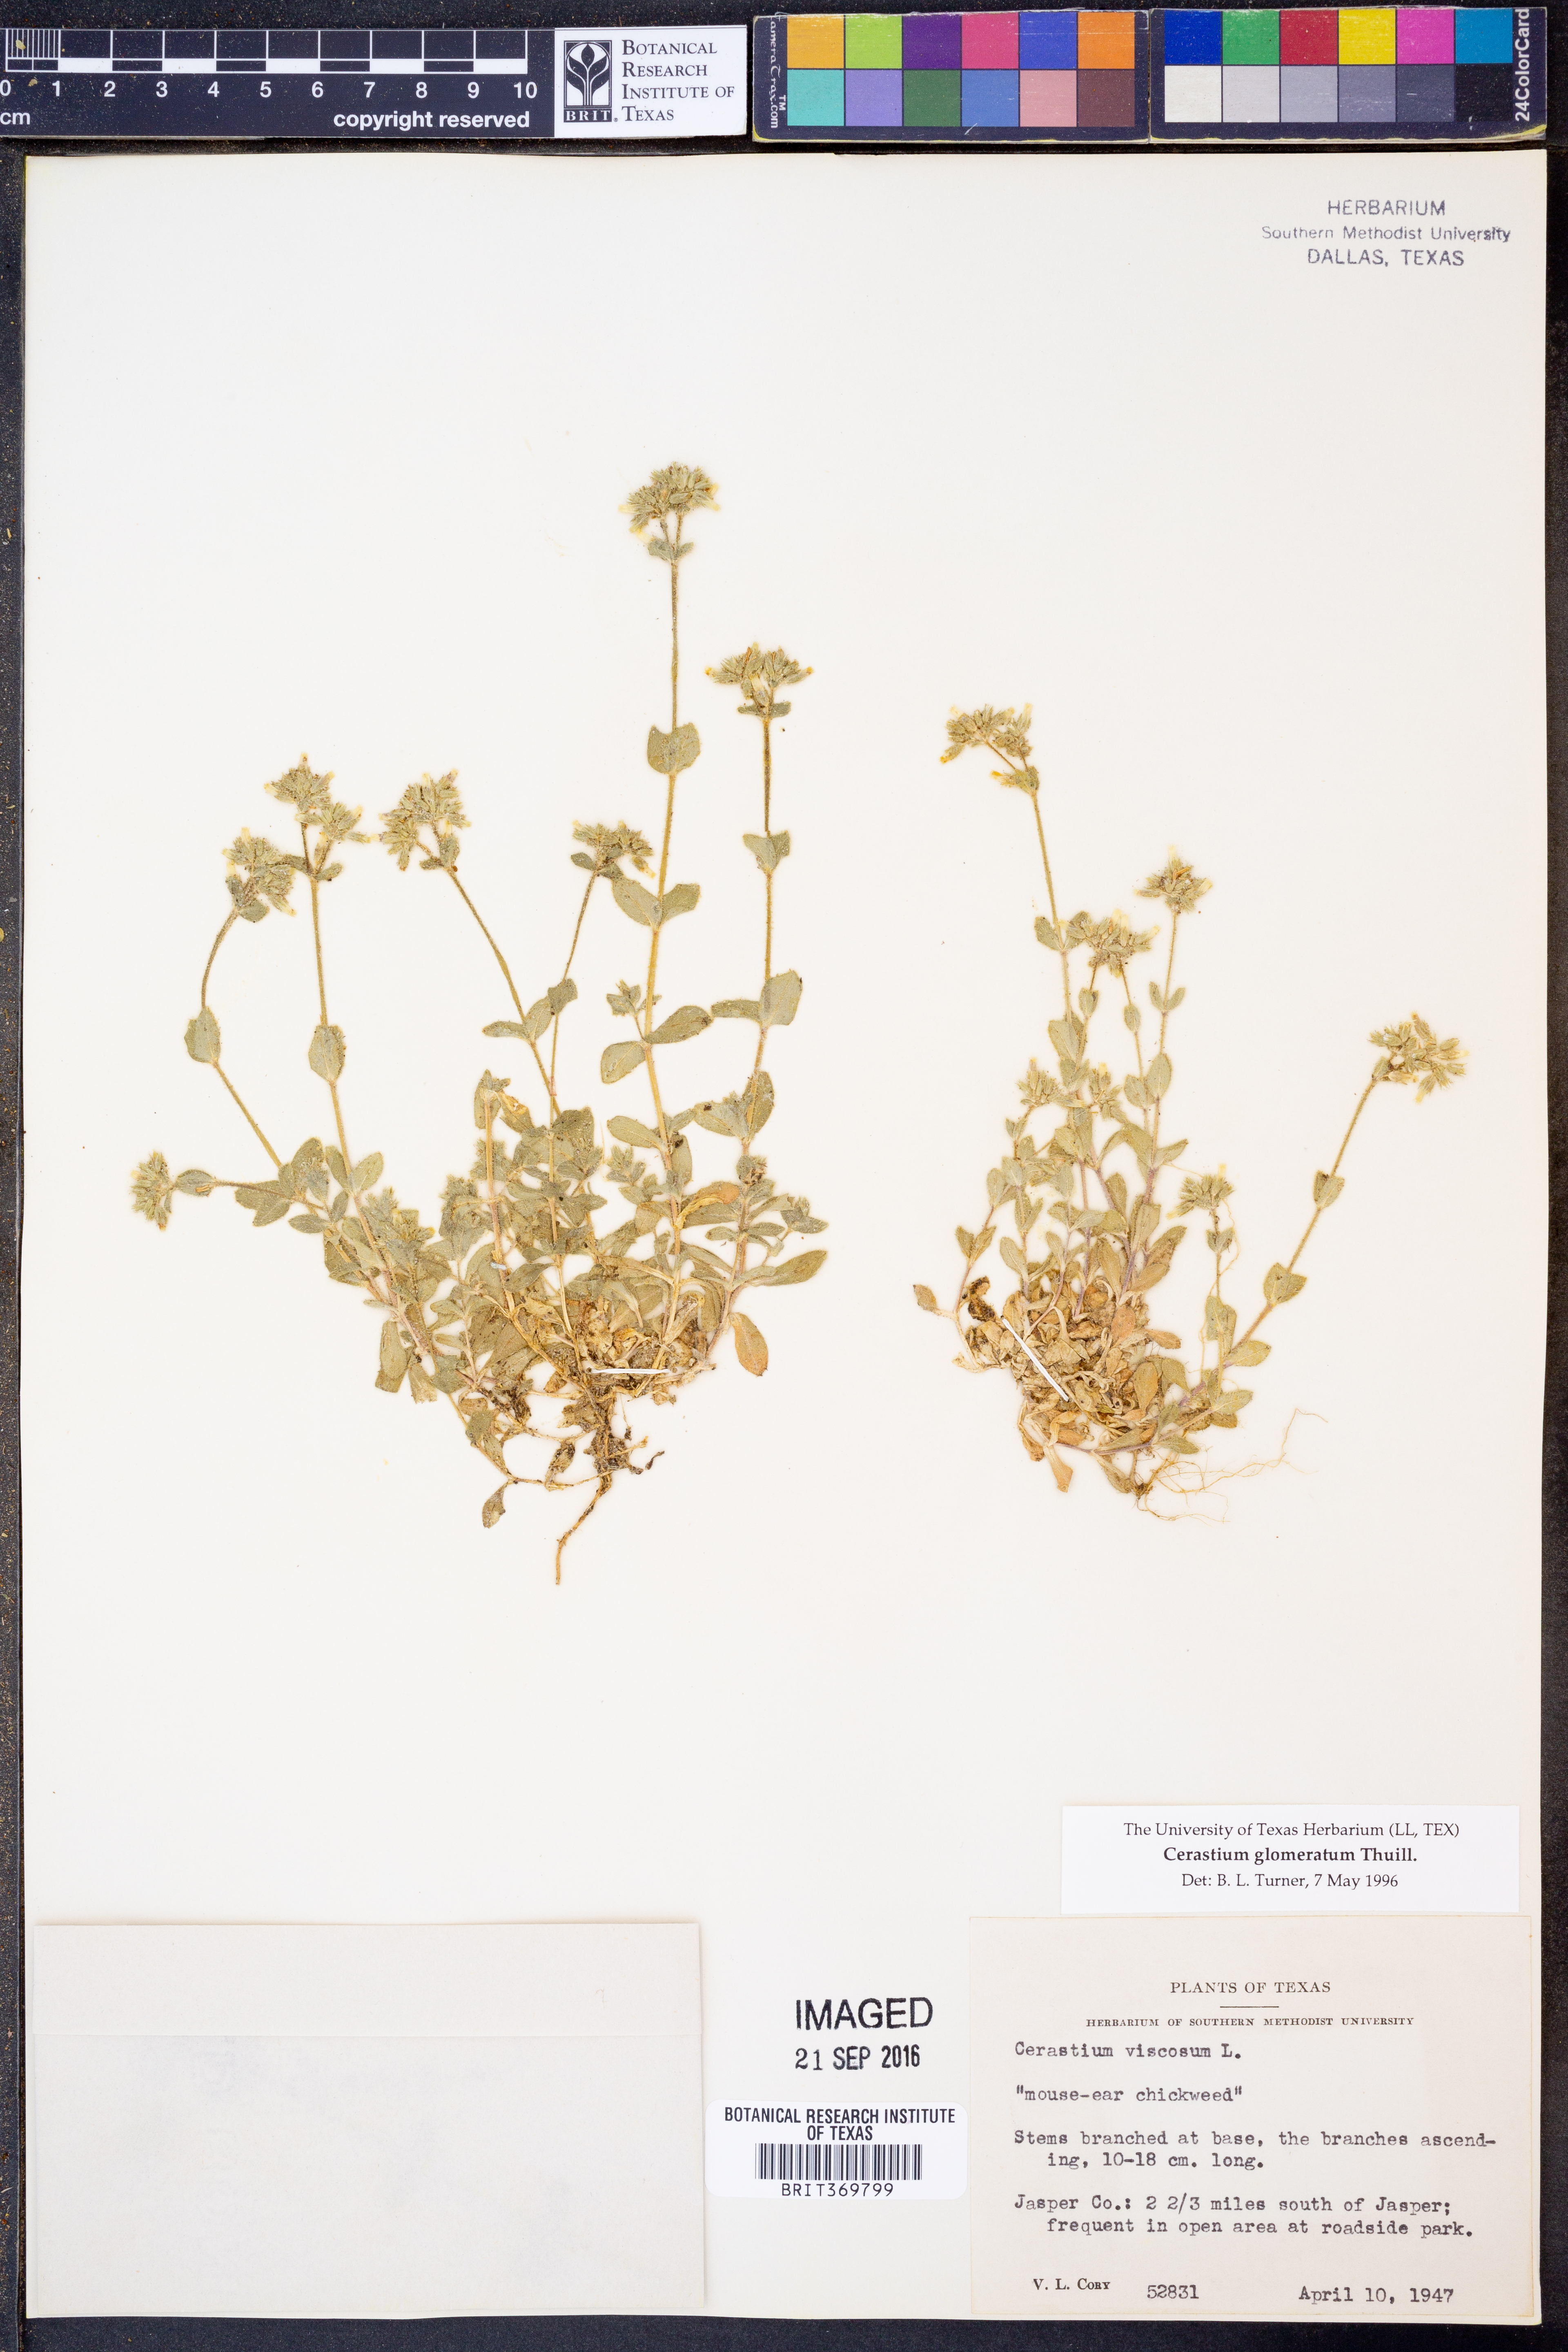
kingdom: Plantae
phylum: Tracheophyta
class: Magnoliopsida
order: Caryophyllales
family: Caryophyllaceae
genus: Cerastium
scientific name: Cerastium glomeratum
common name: Sticky chickweed
